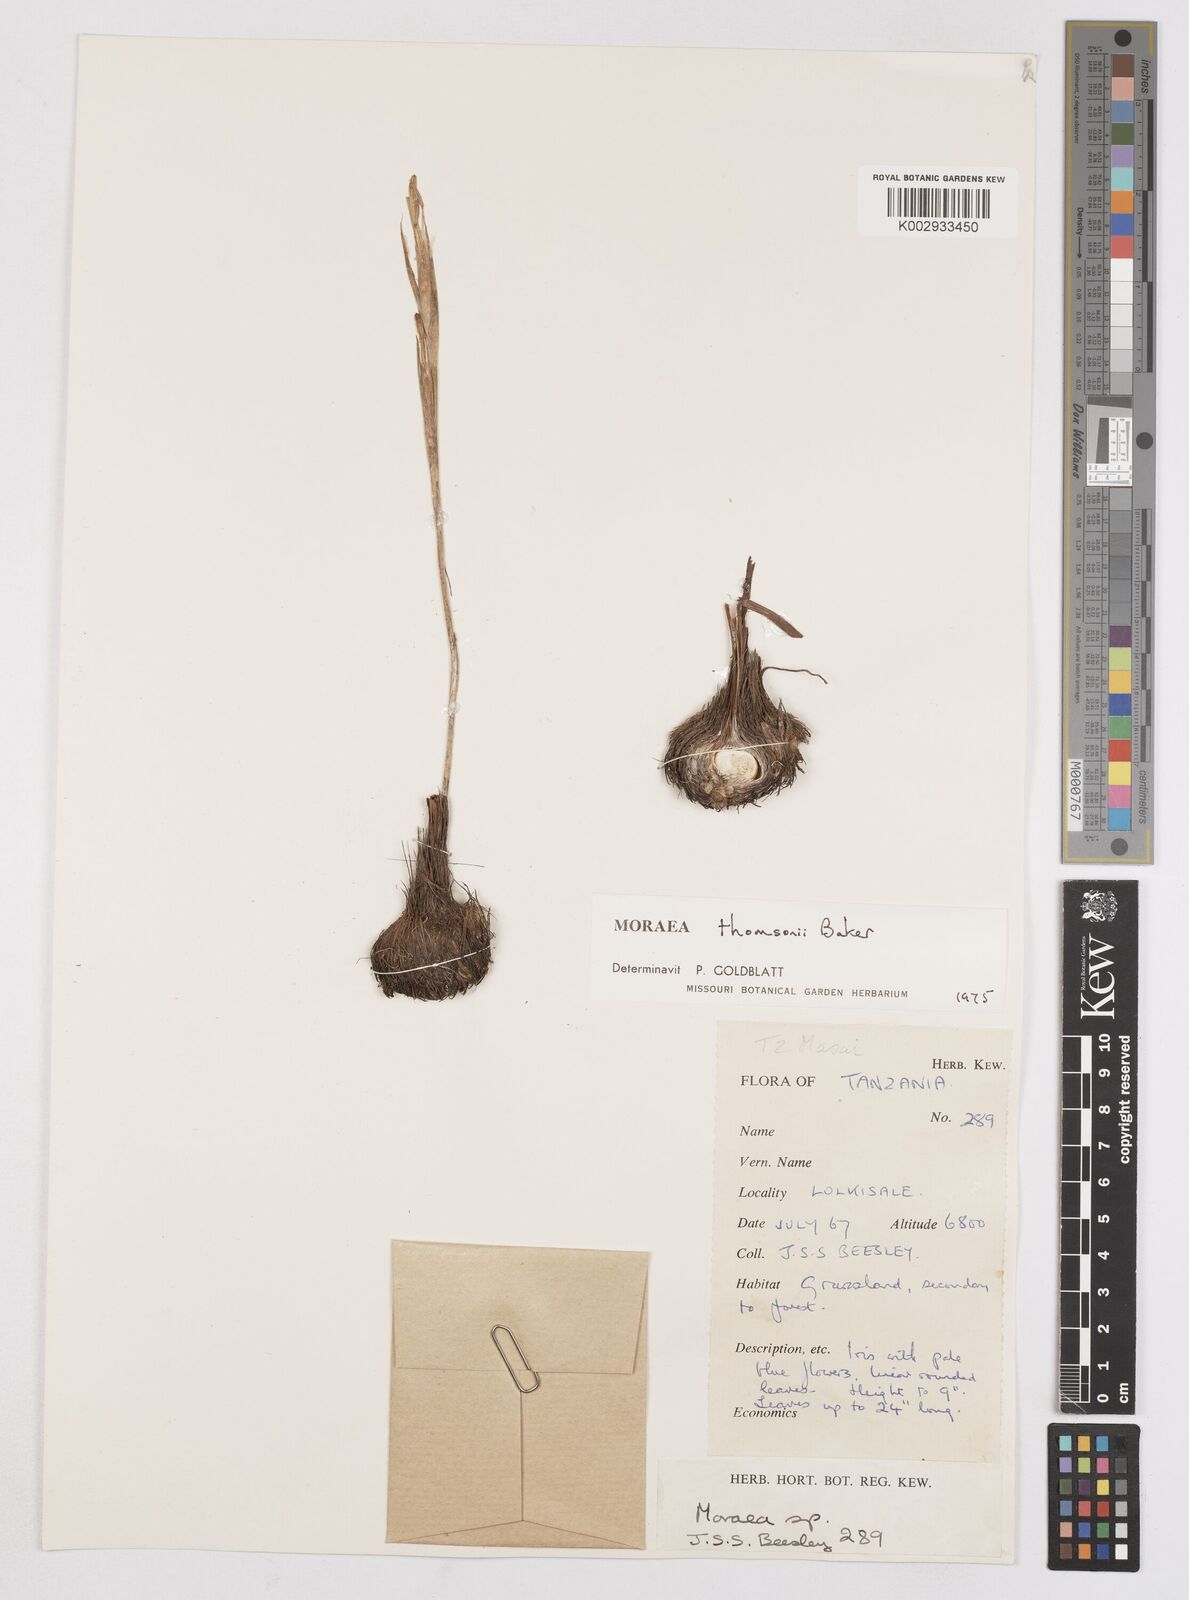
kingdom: Plantae
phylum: Tracheophyta
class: Liliopsida
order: Asparagales
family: Iridaceae
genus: Moraea
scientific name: Moraea stricta
